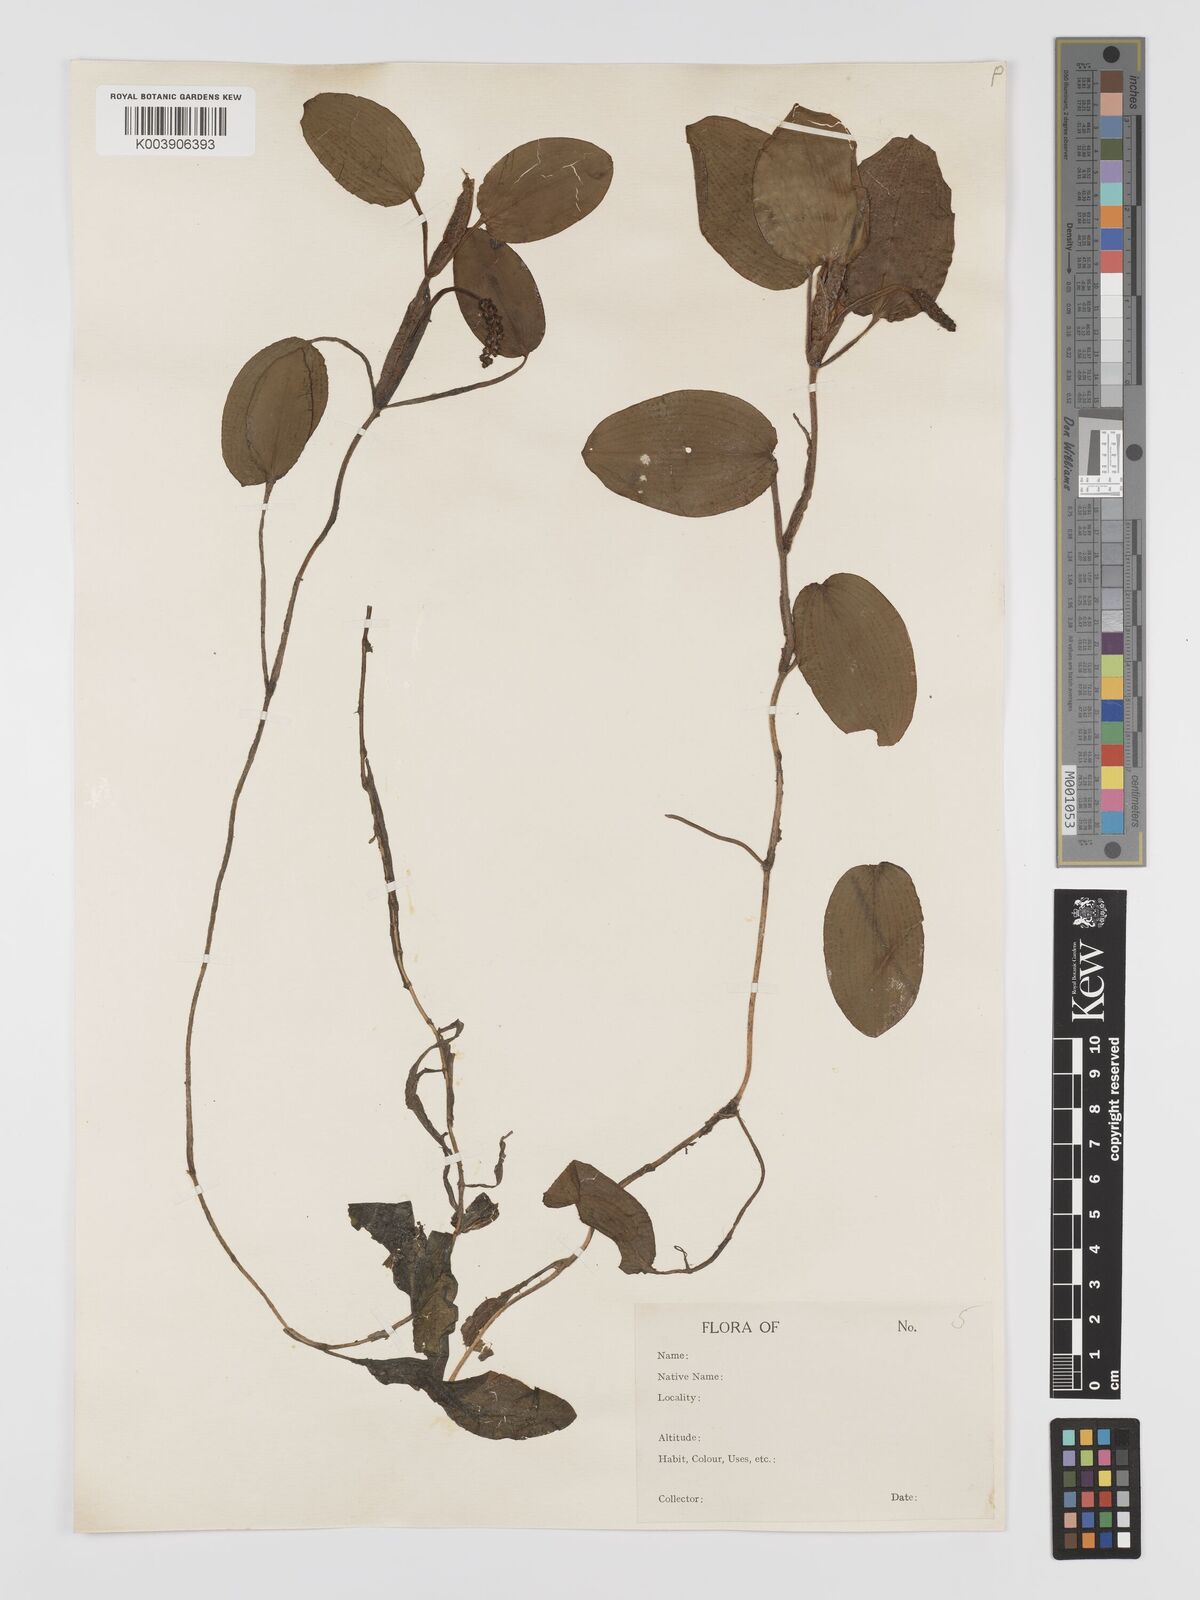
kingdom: Plantae
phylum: Tracheophyta
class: Liliopsida
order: Alismatales
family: Potamogetonaceae
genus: Potamogeton
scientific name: Potamogeton tricarinatus
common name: Pondweed
